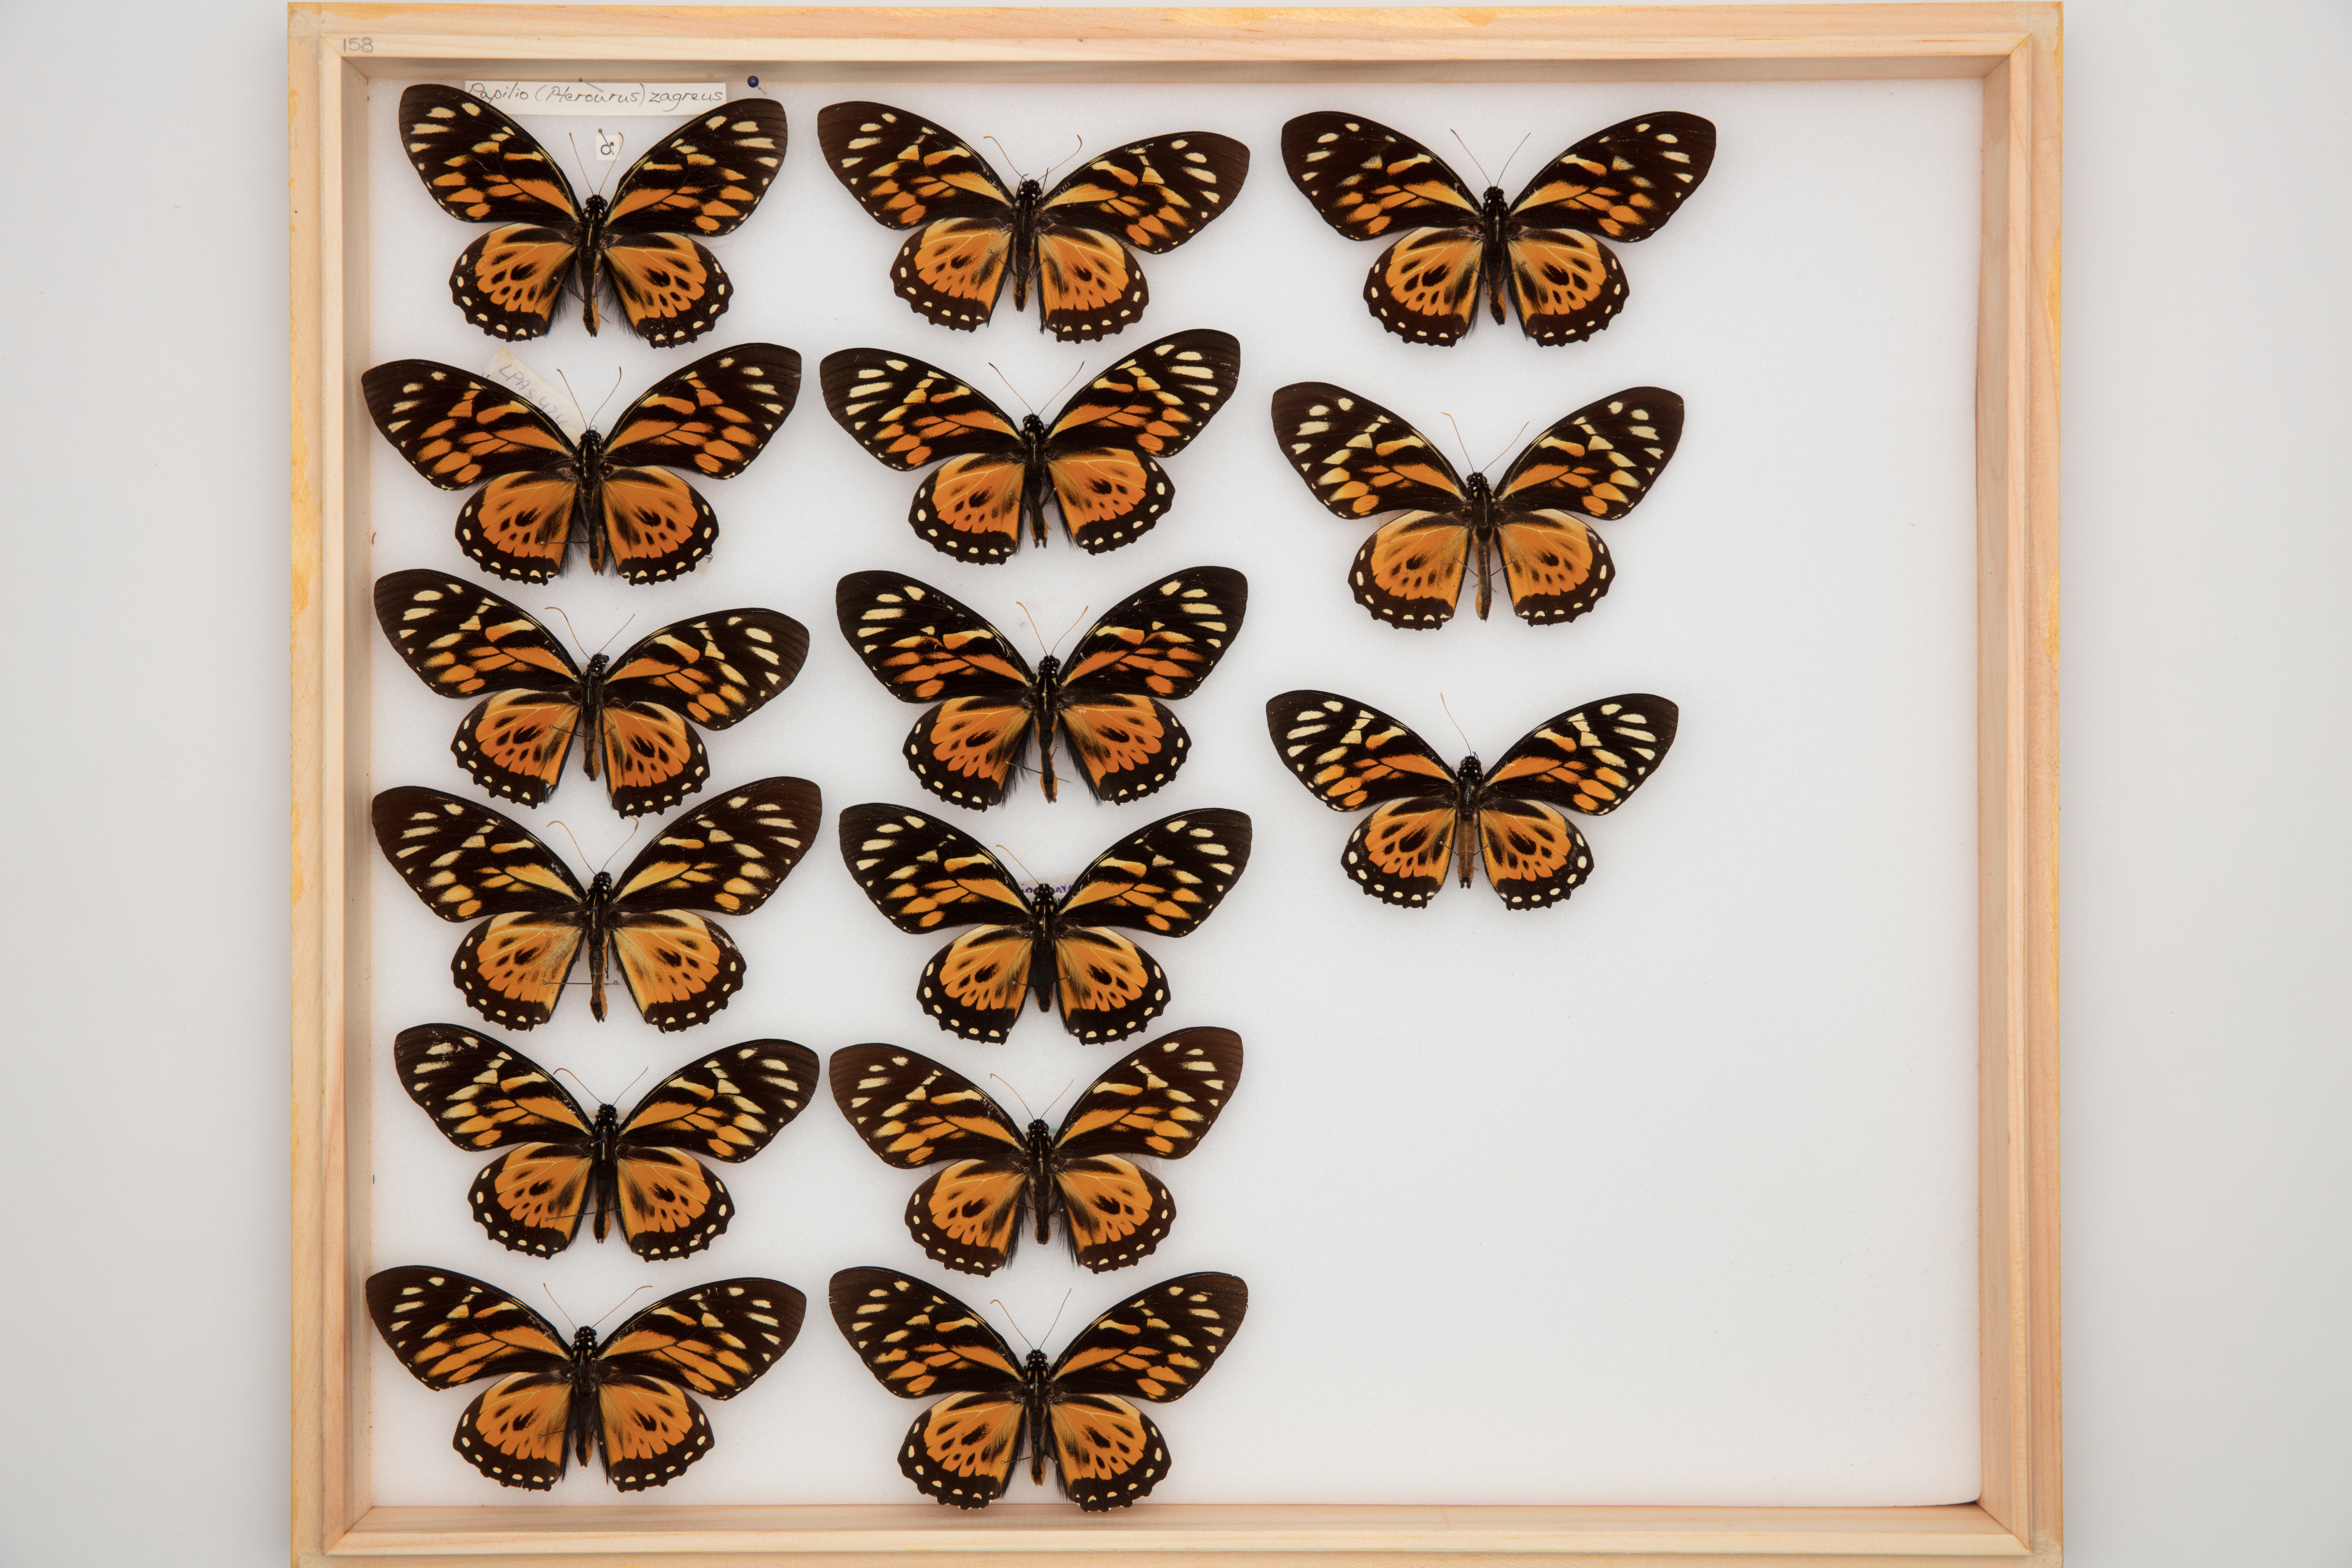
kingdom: Animalia
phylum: Arthropoda
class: Insecta
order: Lepidoptera
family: Papilionidae
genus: Papilio
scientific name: Papilio zagreus
